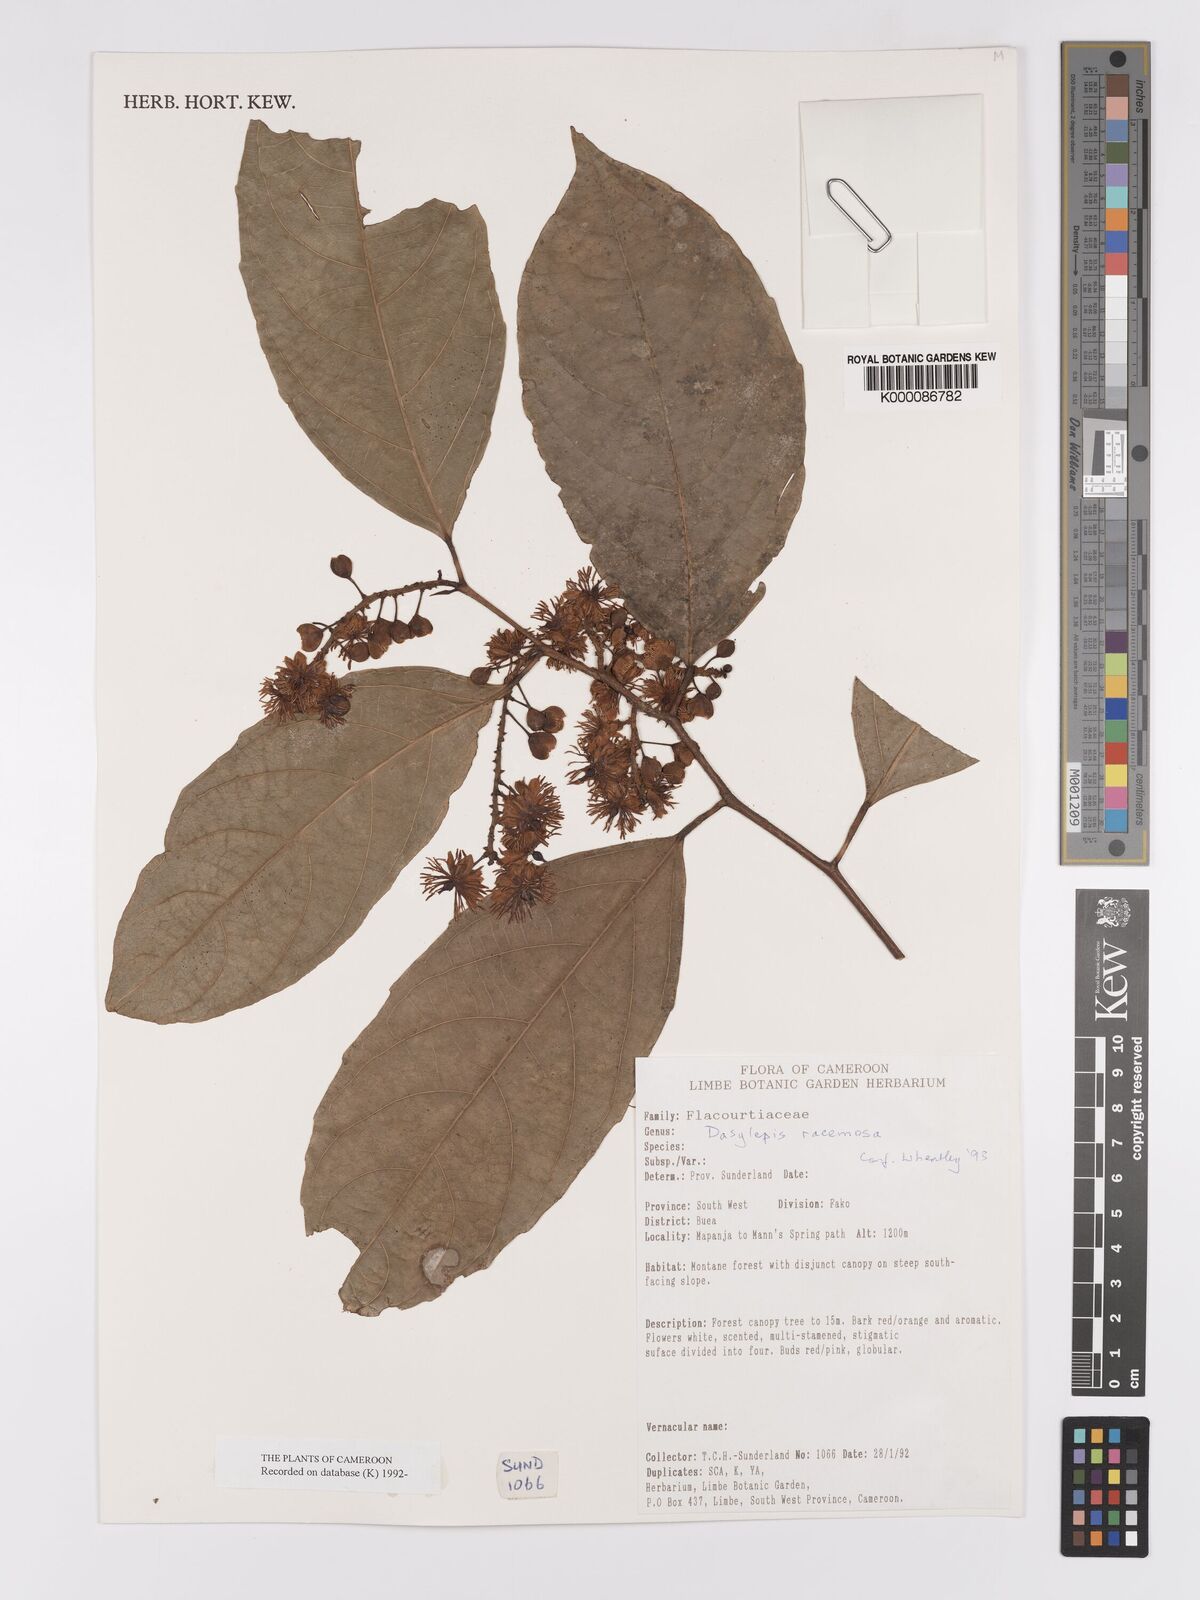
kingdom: Plantae
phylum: Tracheophyta
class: Magnoliopsida
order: Malpighiales
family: Achariaceae
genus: Dasylepis
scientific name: Dasylepis racemosa
